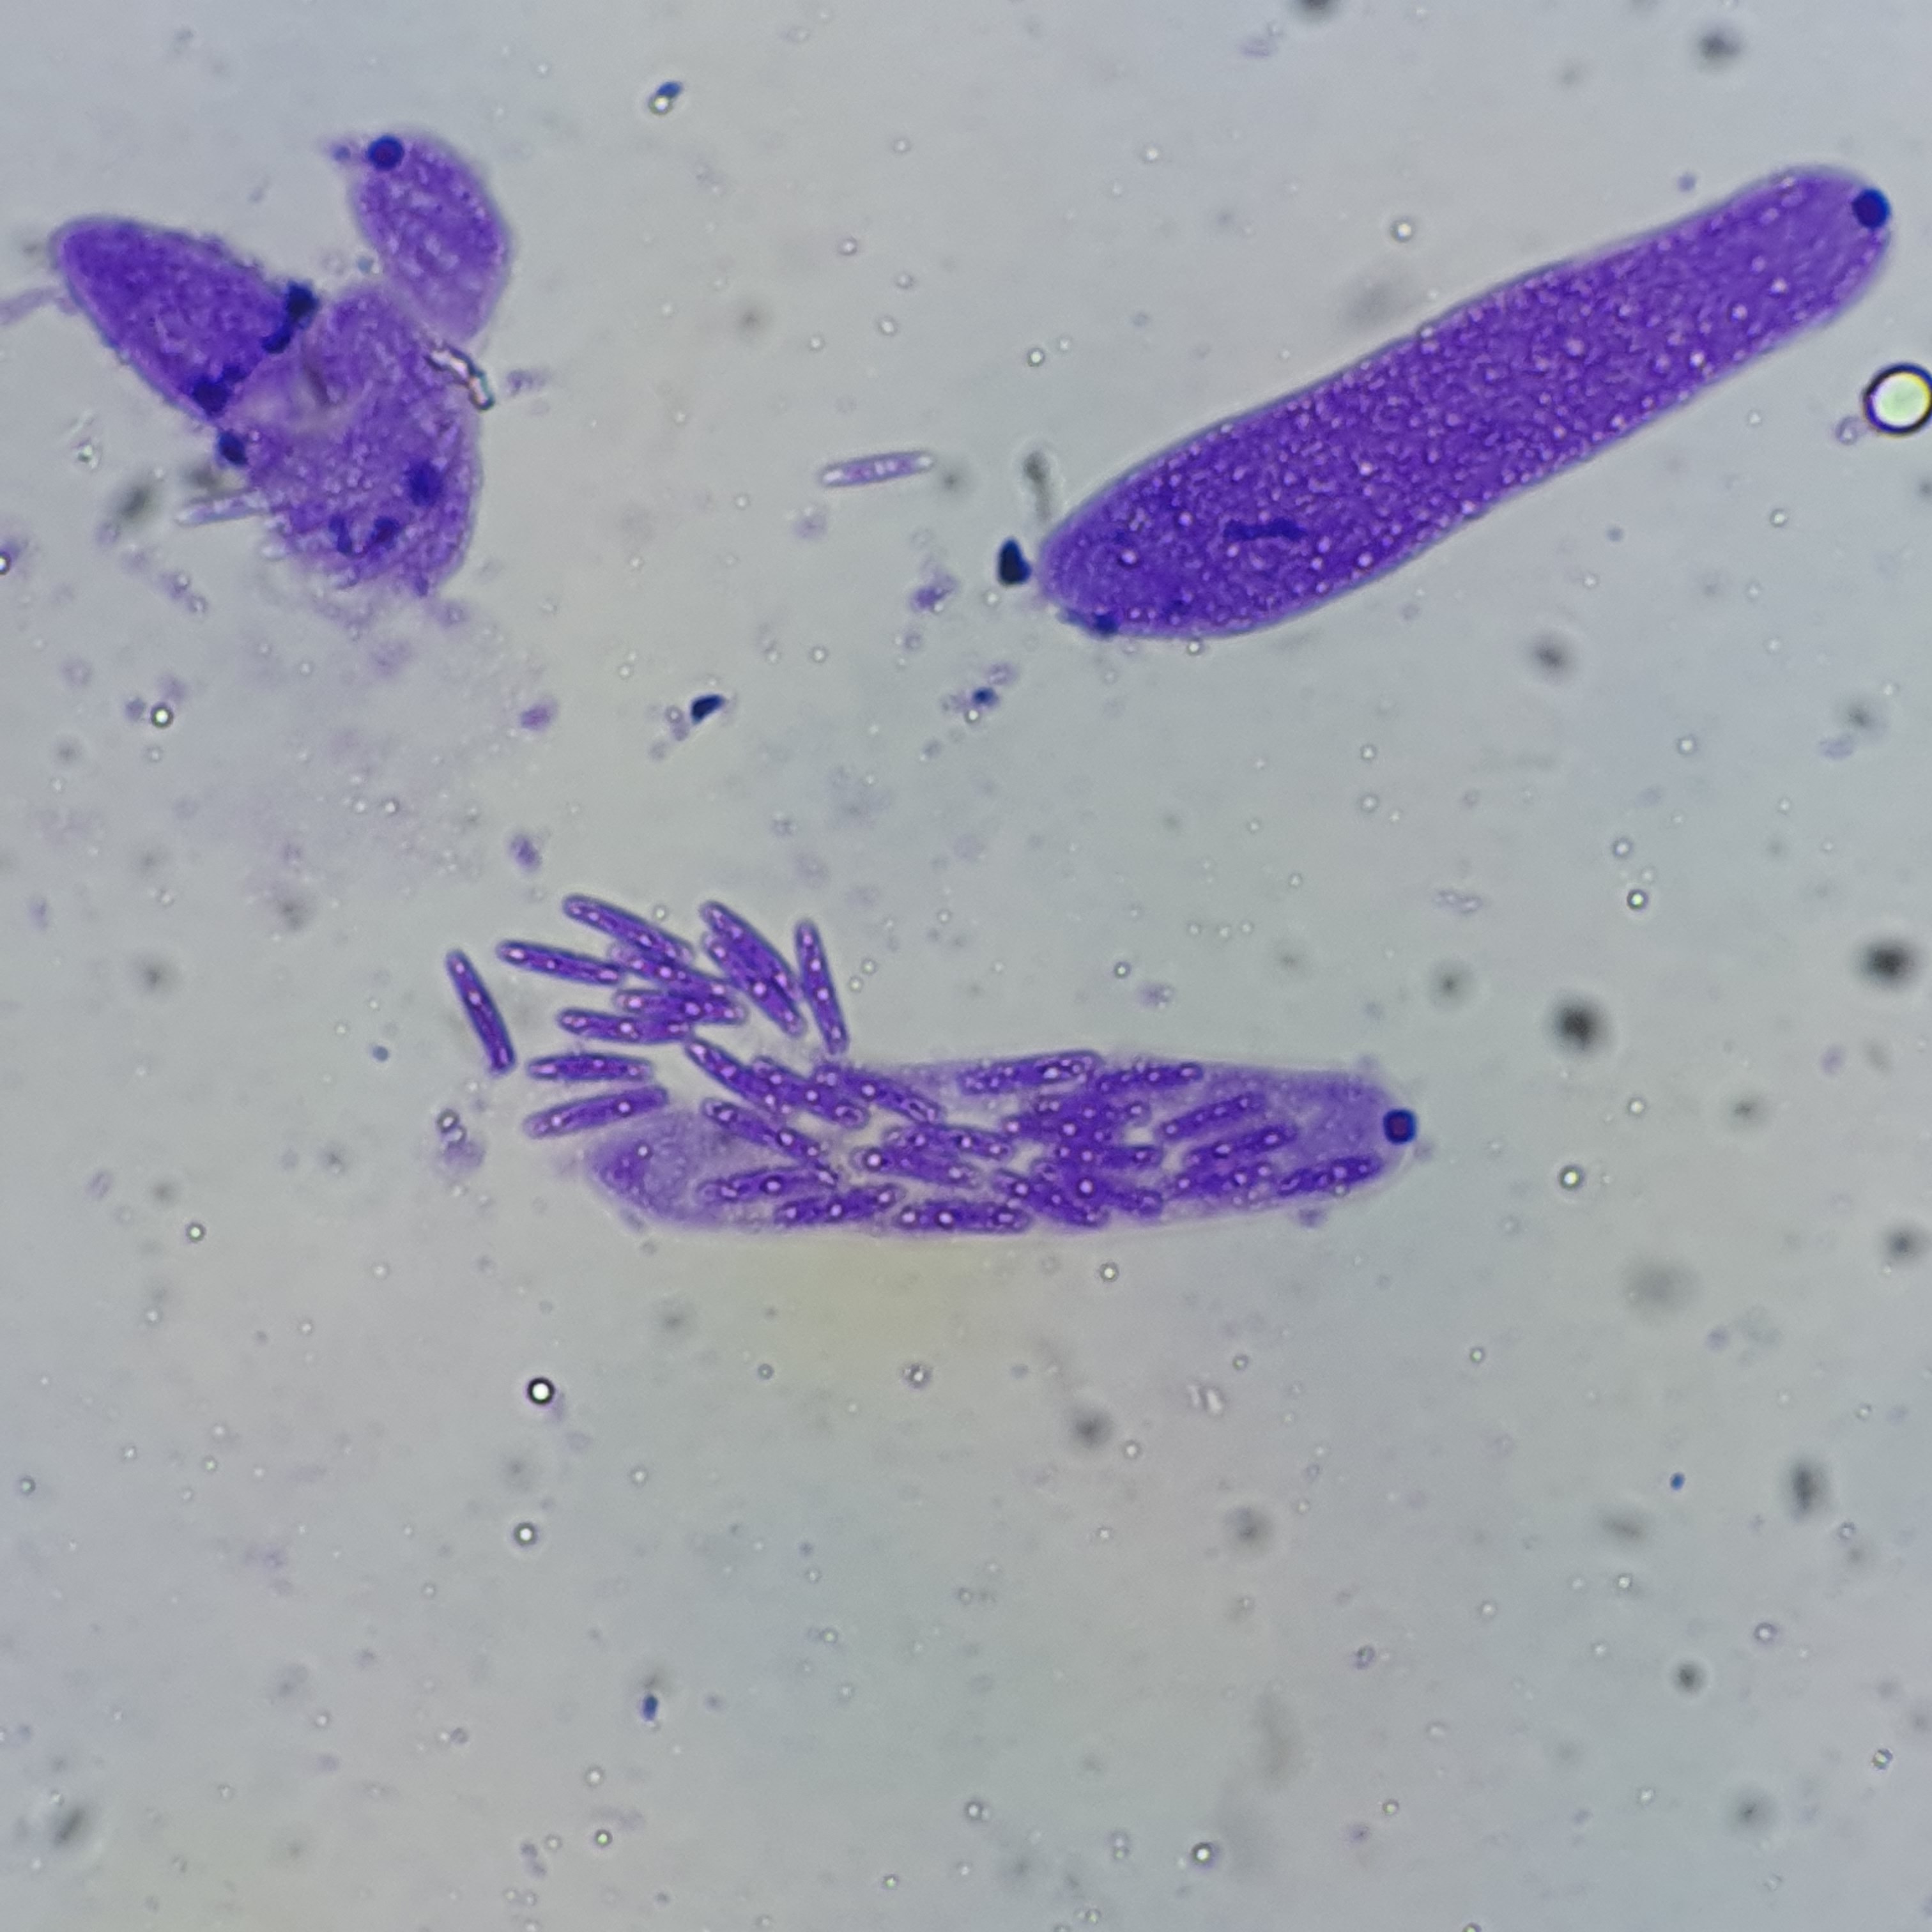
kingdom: Fungi
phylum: Ascomycota
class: Sordariomycetes
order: Diaporthales
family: Gnomoniaceae
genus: Ditopella
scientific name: Ditopella ditopa
